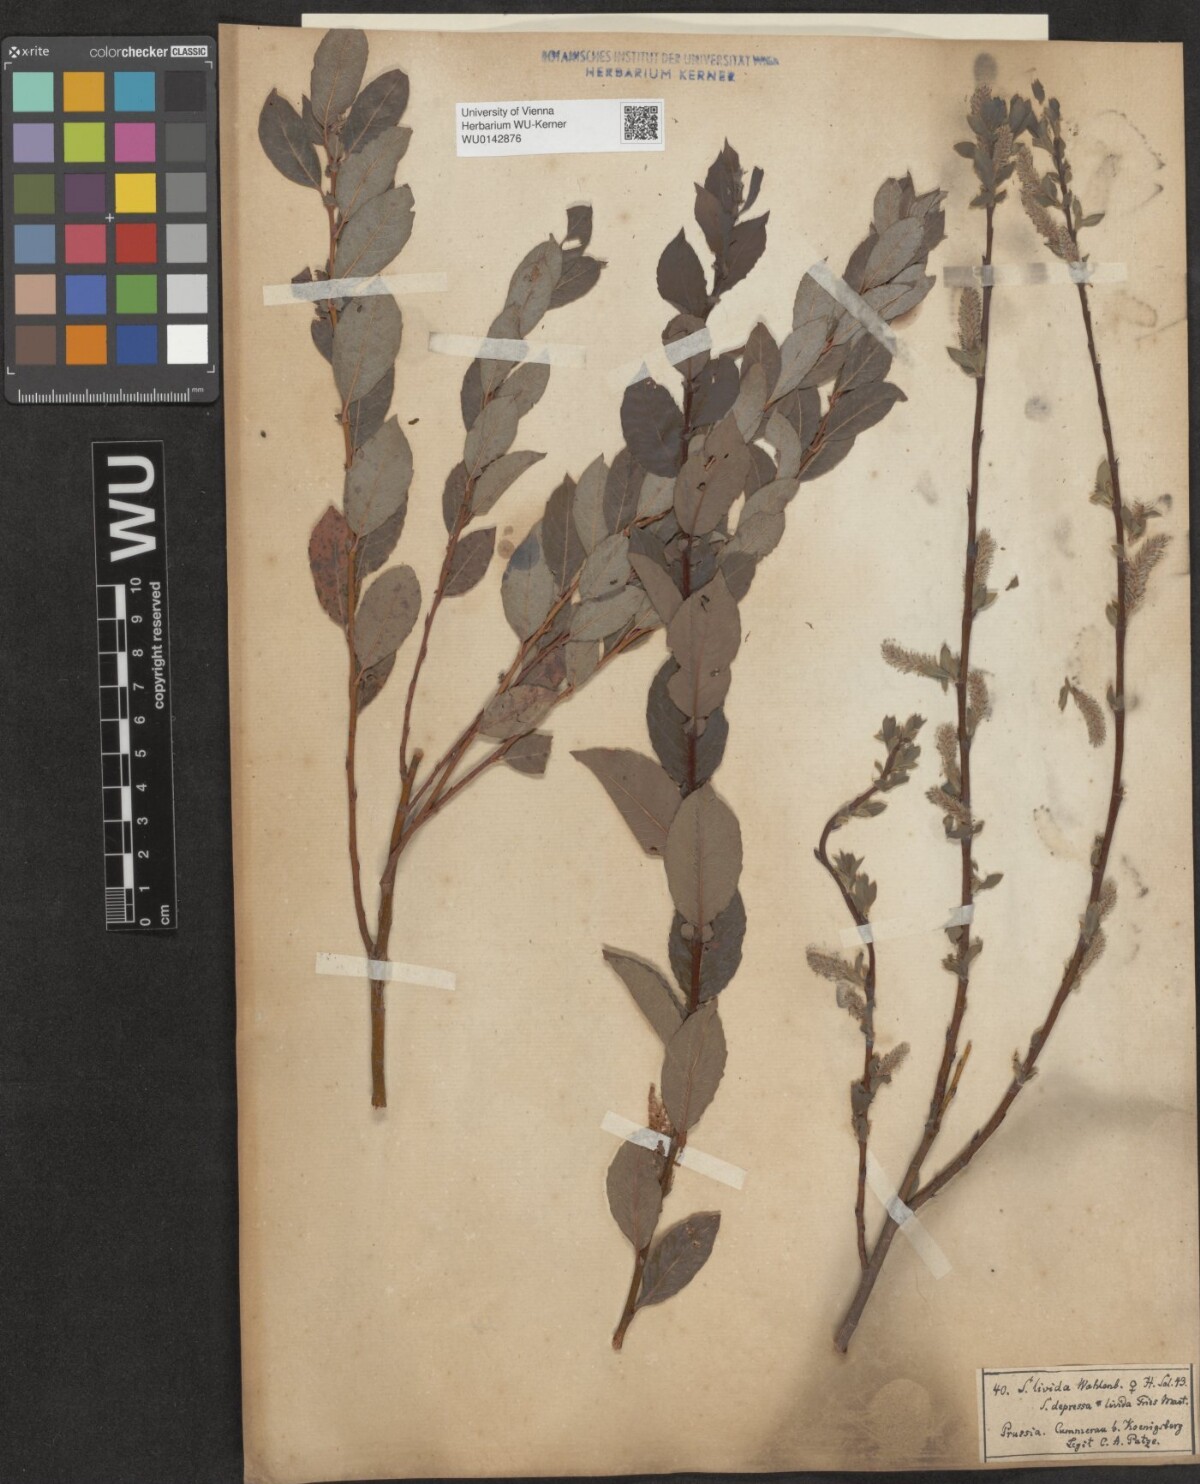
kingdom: Plantae
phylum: Tracheophyta
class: Magnoliopsida
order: Malpighiales
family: Salicaceae
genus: Salix
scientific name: Salix starkeana
